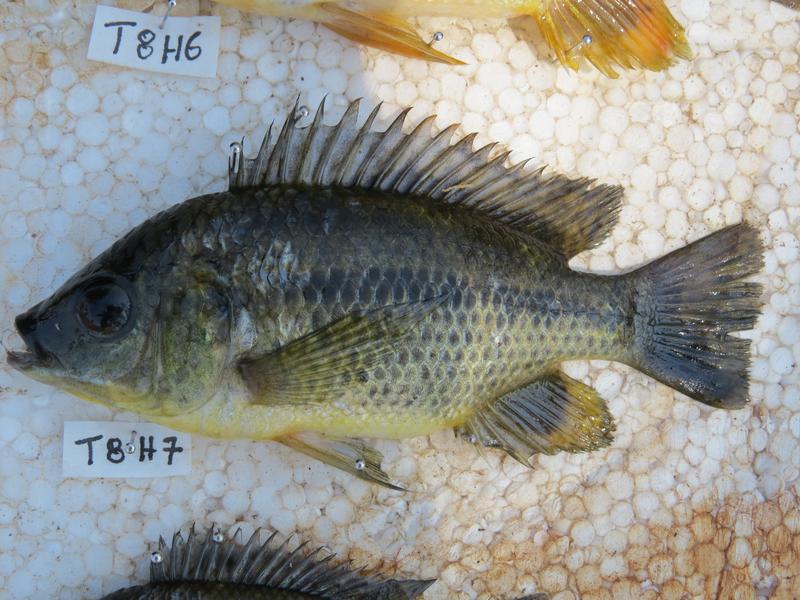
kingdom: Animalia
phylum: Chordata
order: Perciformes
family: Cichlidae
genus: Oreochromis
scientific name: Oreochromis shiranus
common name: Chilwa tilapia
